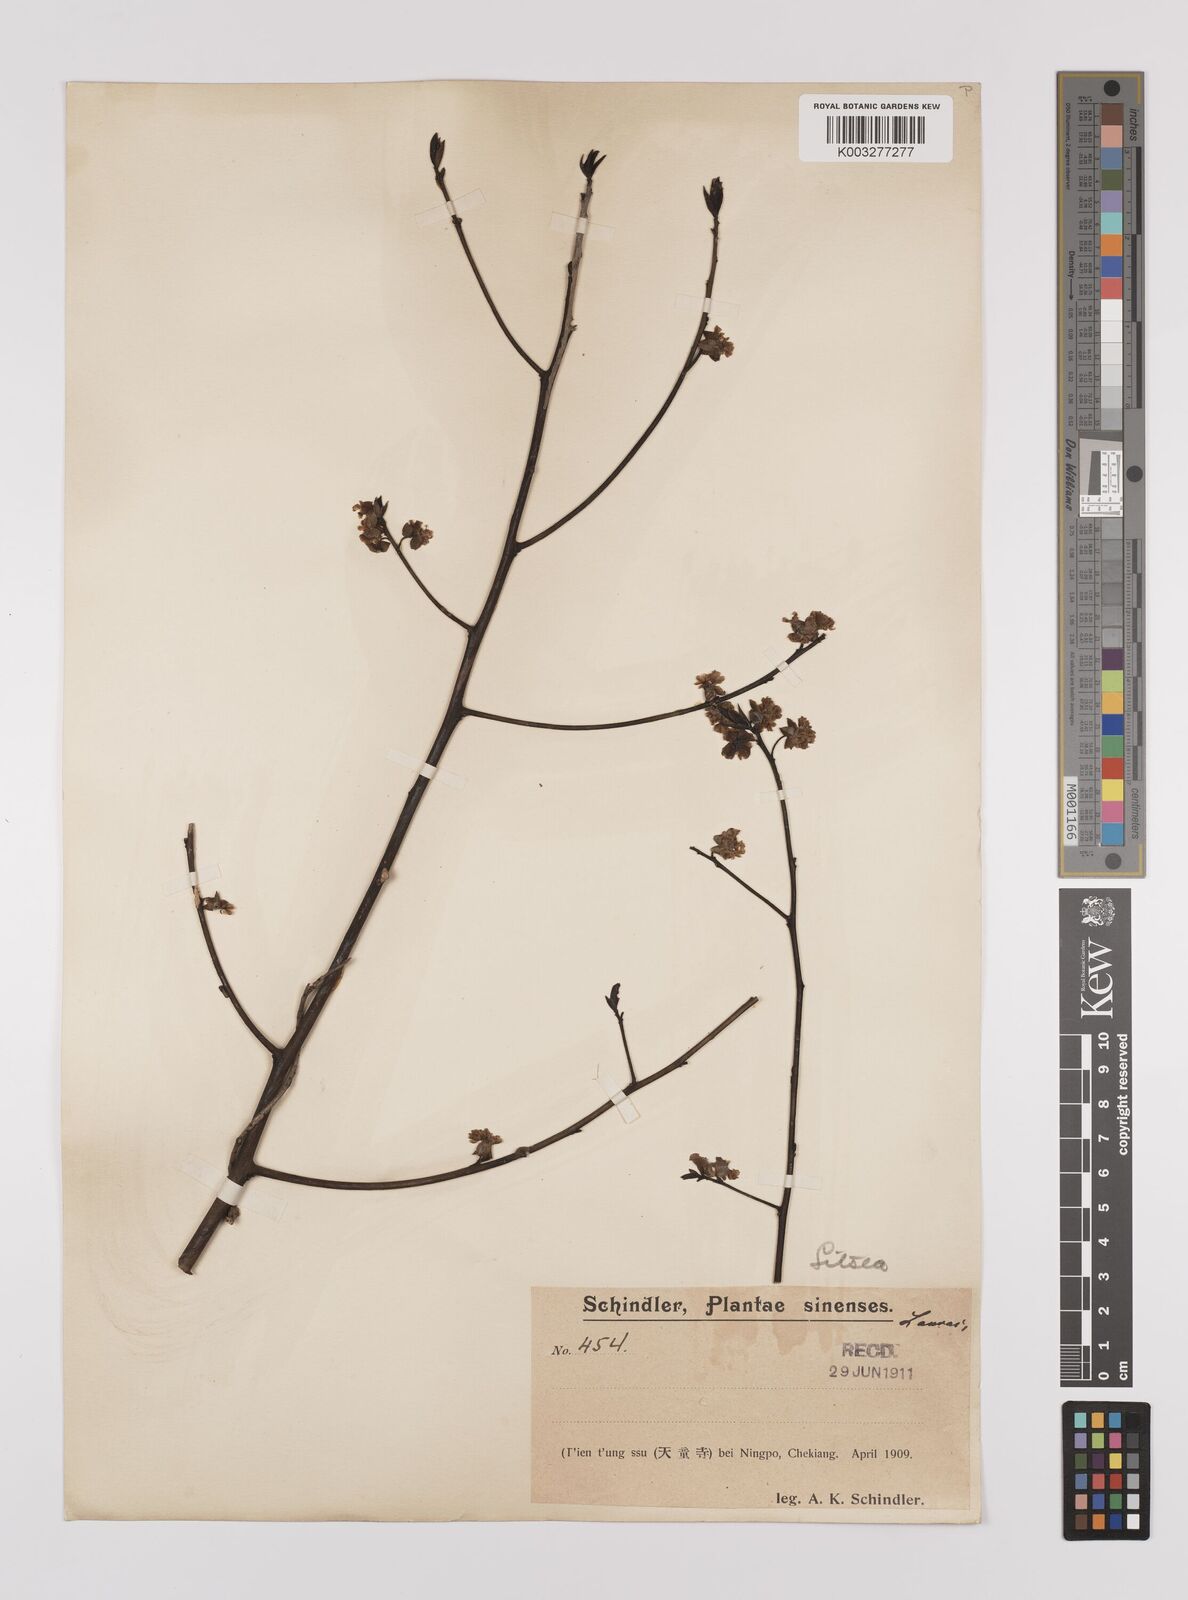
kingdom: Plantae
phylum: Tracheophyta
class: Magnoliopsida
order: Laurales
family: Lauraceae
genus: Litsea
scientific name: Litsea cubeba
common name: Mountain-pepper
